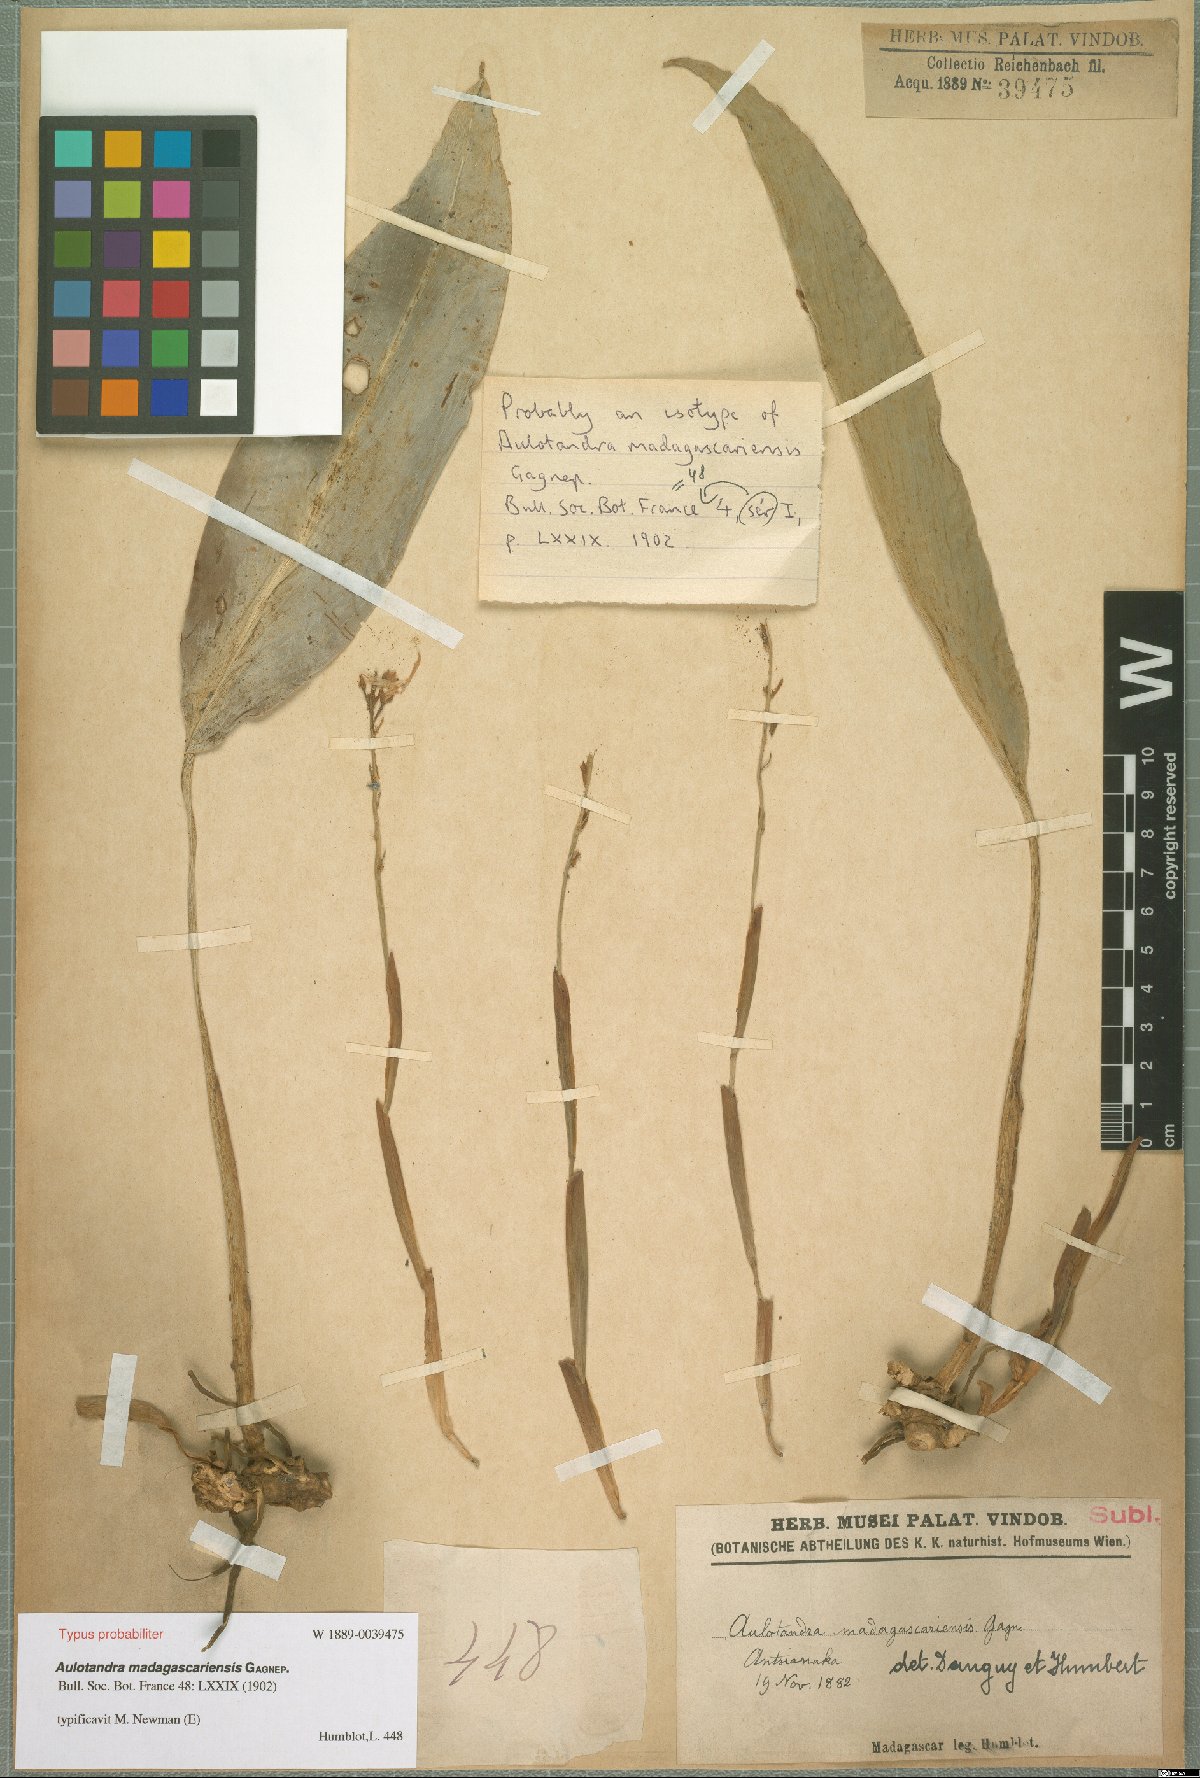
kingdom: Plantae
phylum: Tracheophyta
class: Liliopsida
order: Zingiberales
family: Zingiberaceae
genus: Aulotandra
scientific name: Aulotandra madagascariensis
